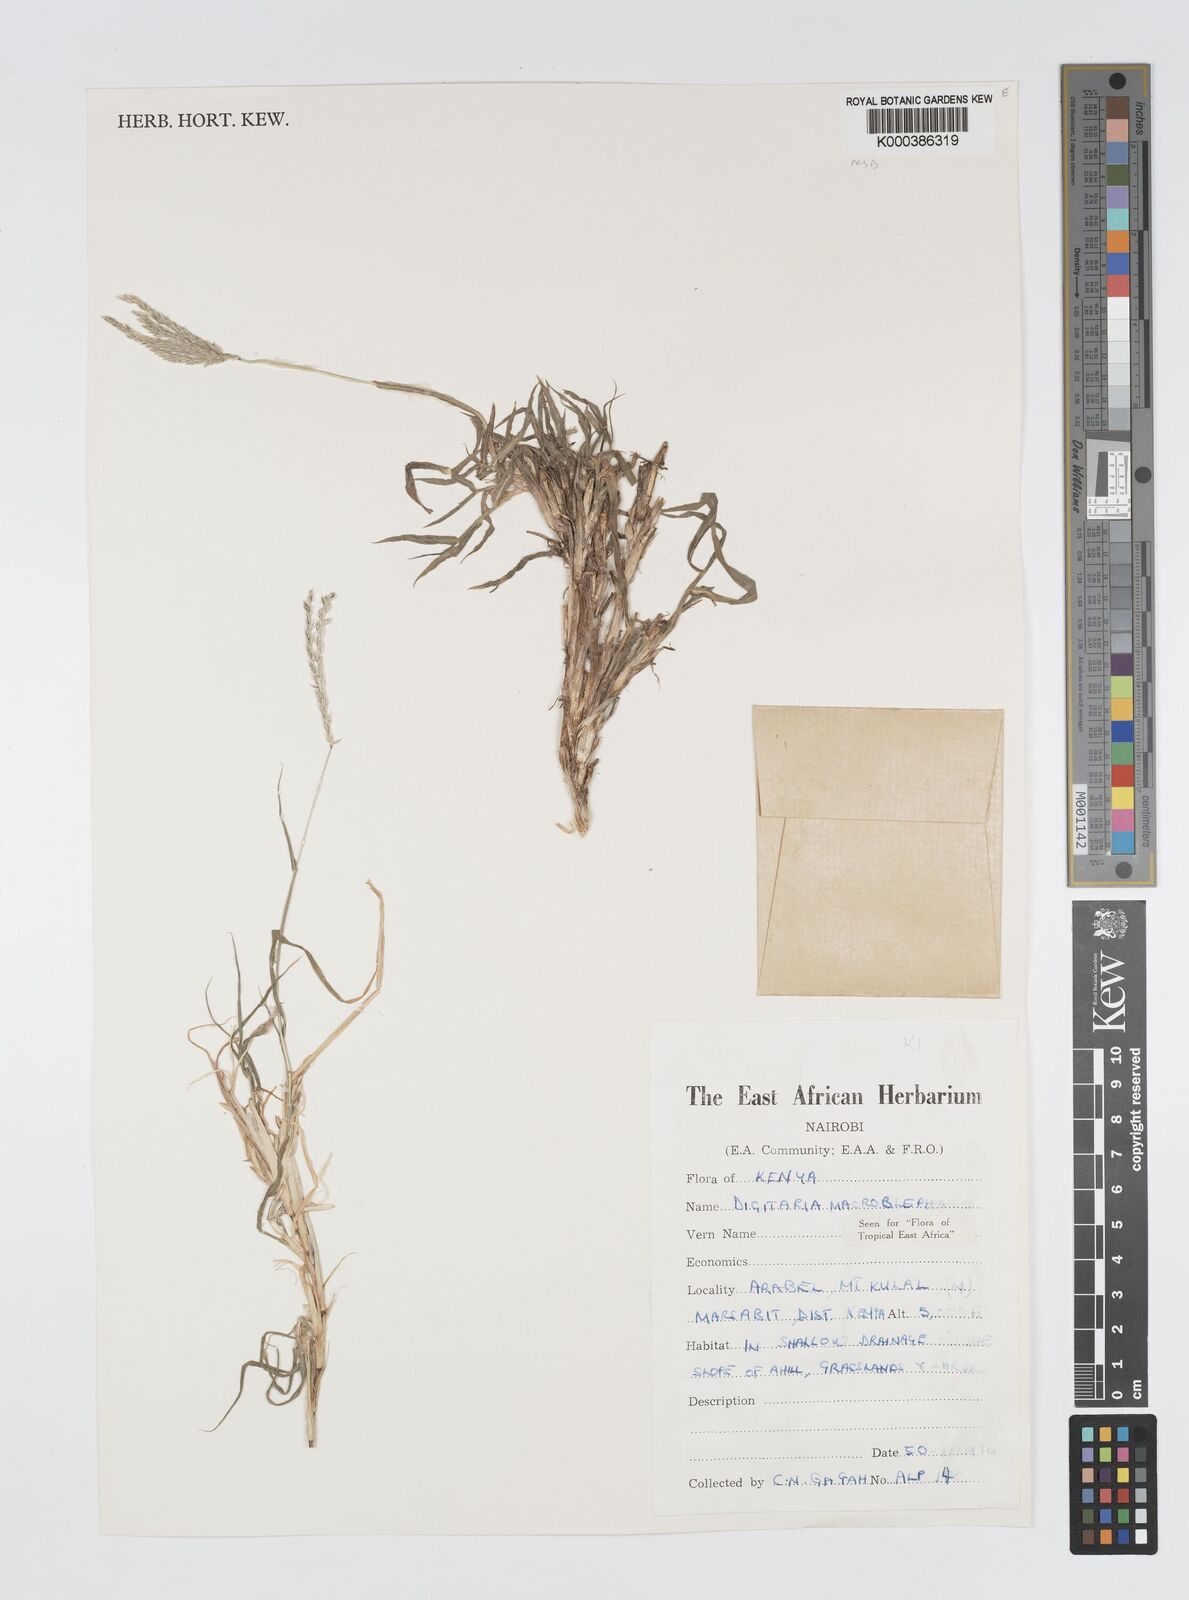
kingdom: Plantae
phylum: Tracheophyta
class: Liliopsida
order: Poales
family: Poaceae
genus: Digitaria
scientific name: Digitaria macroblephara
